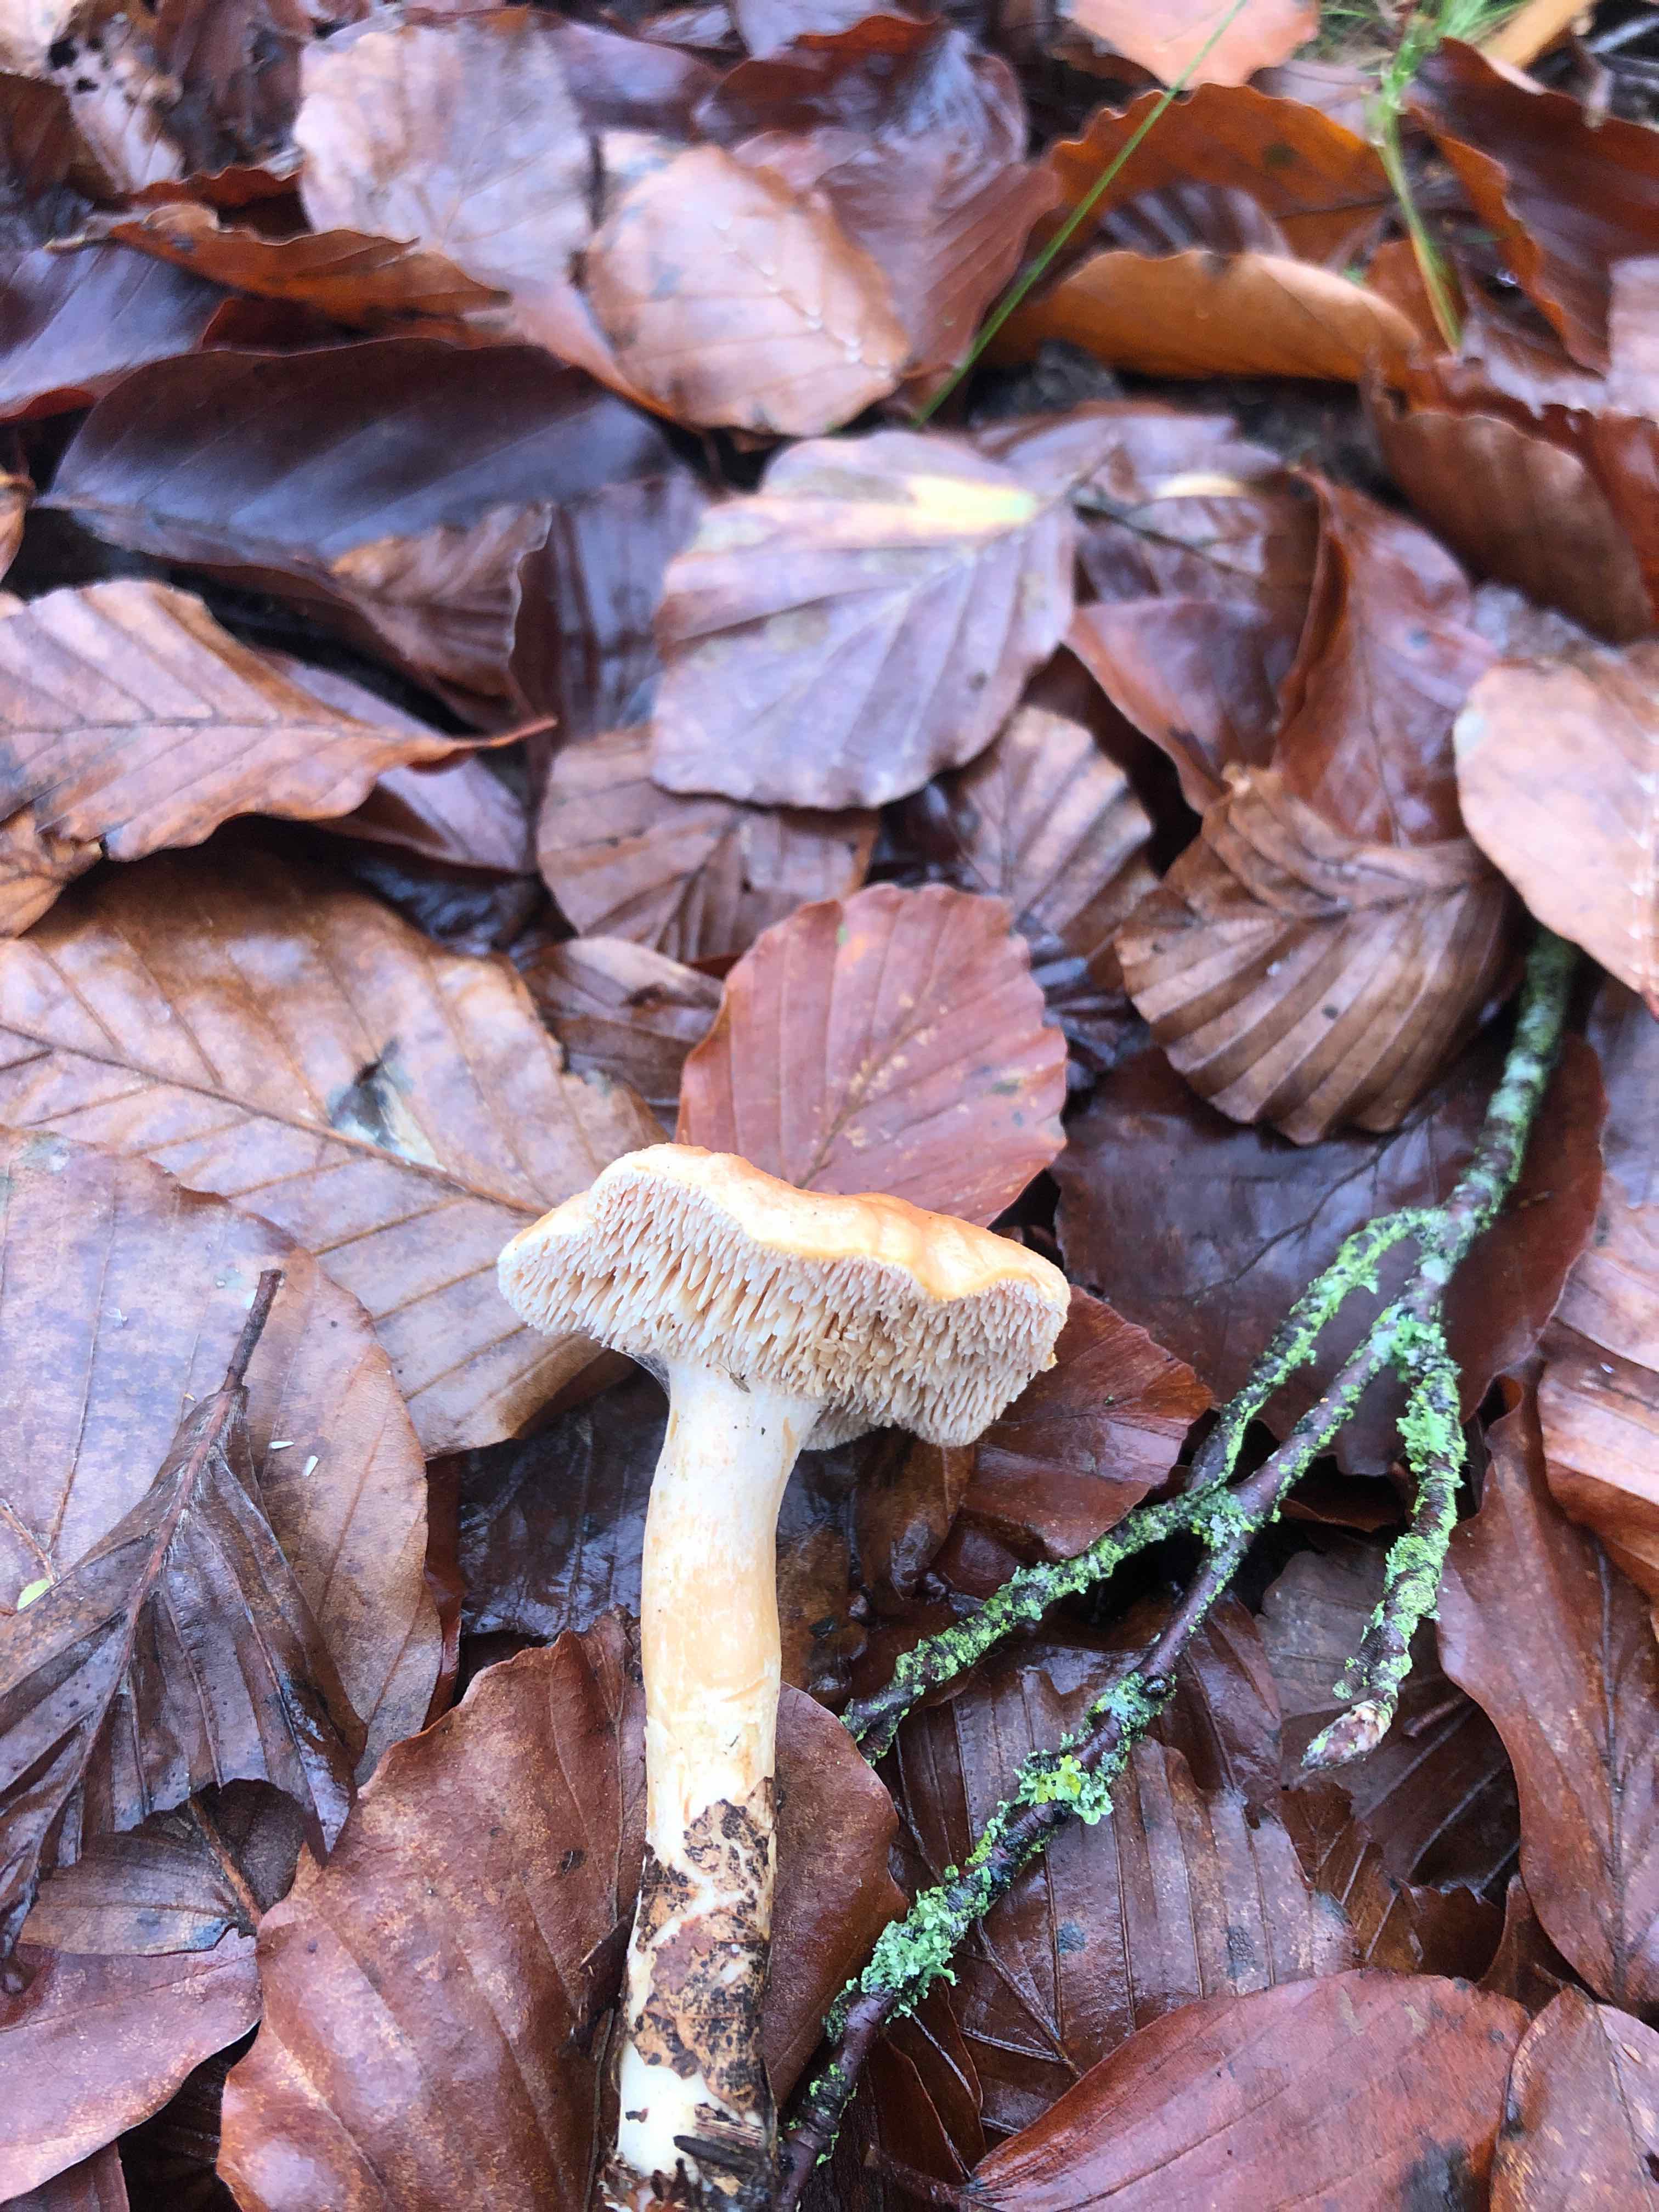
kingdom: Fungi
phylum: Basidiomycota
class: Agaricomycetes
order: Cantharellales
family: Hydnaceae
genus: Hydnum
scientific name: Hydnum rufescens
